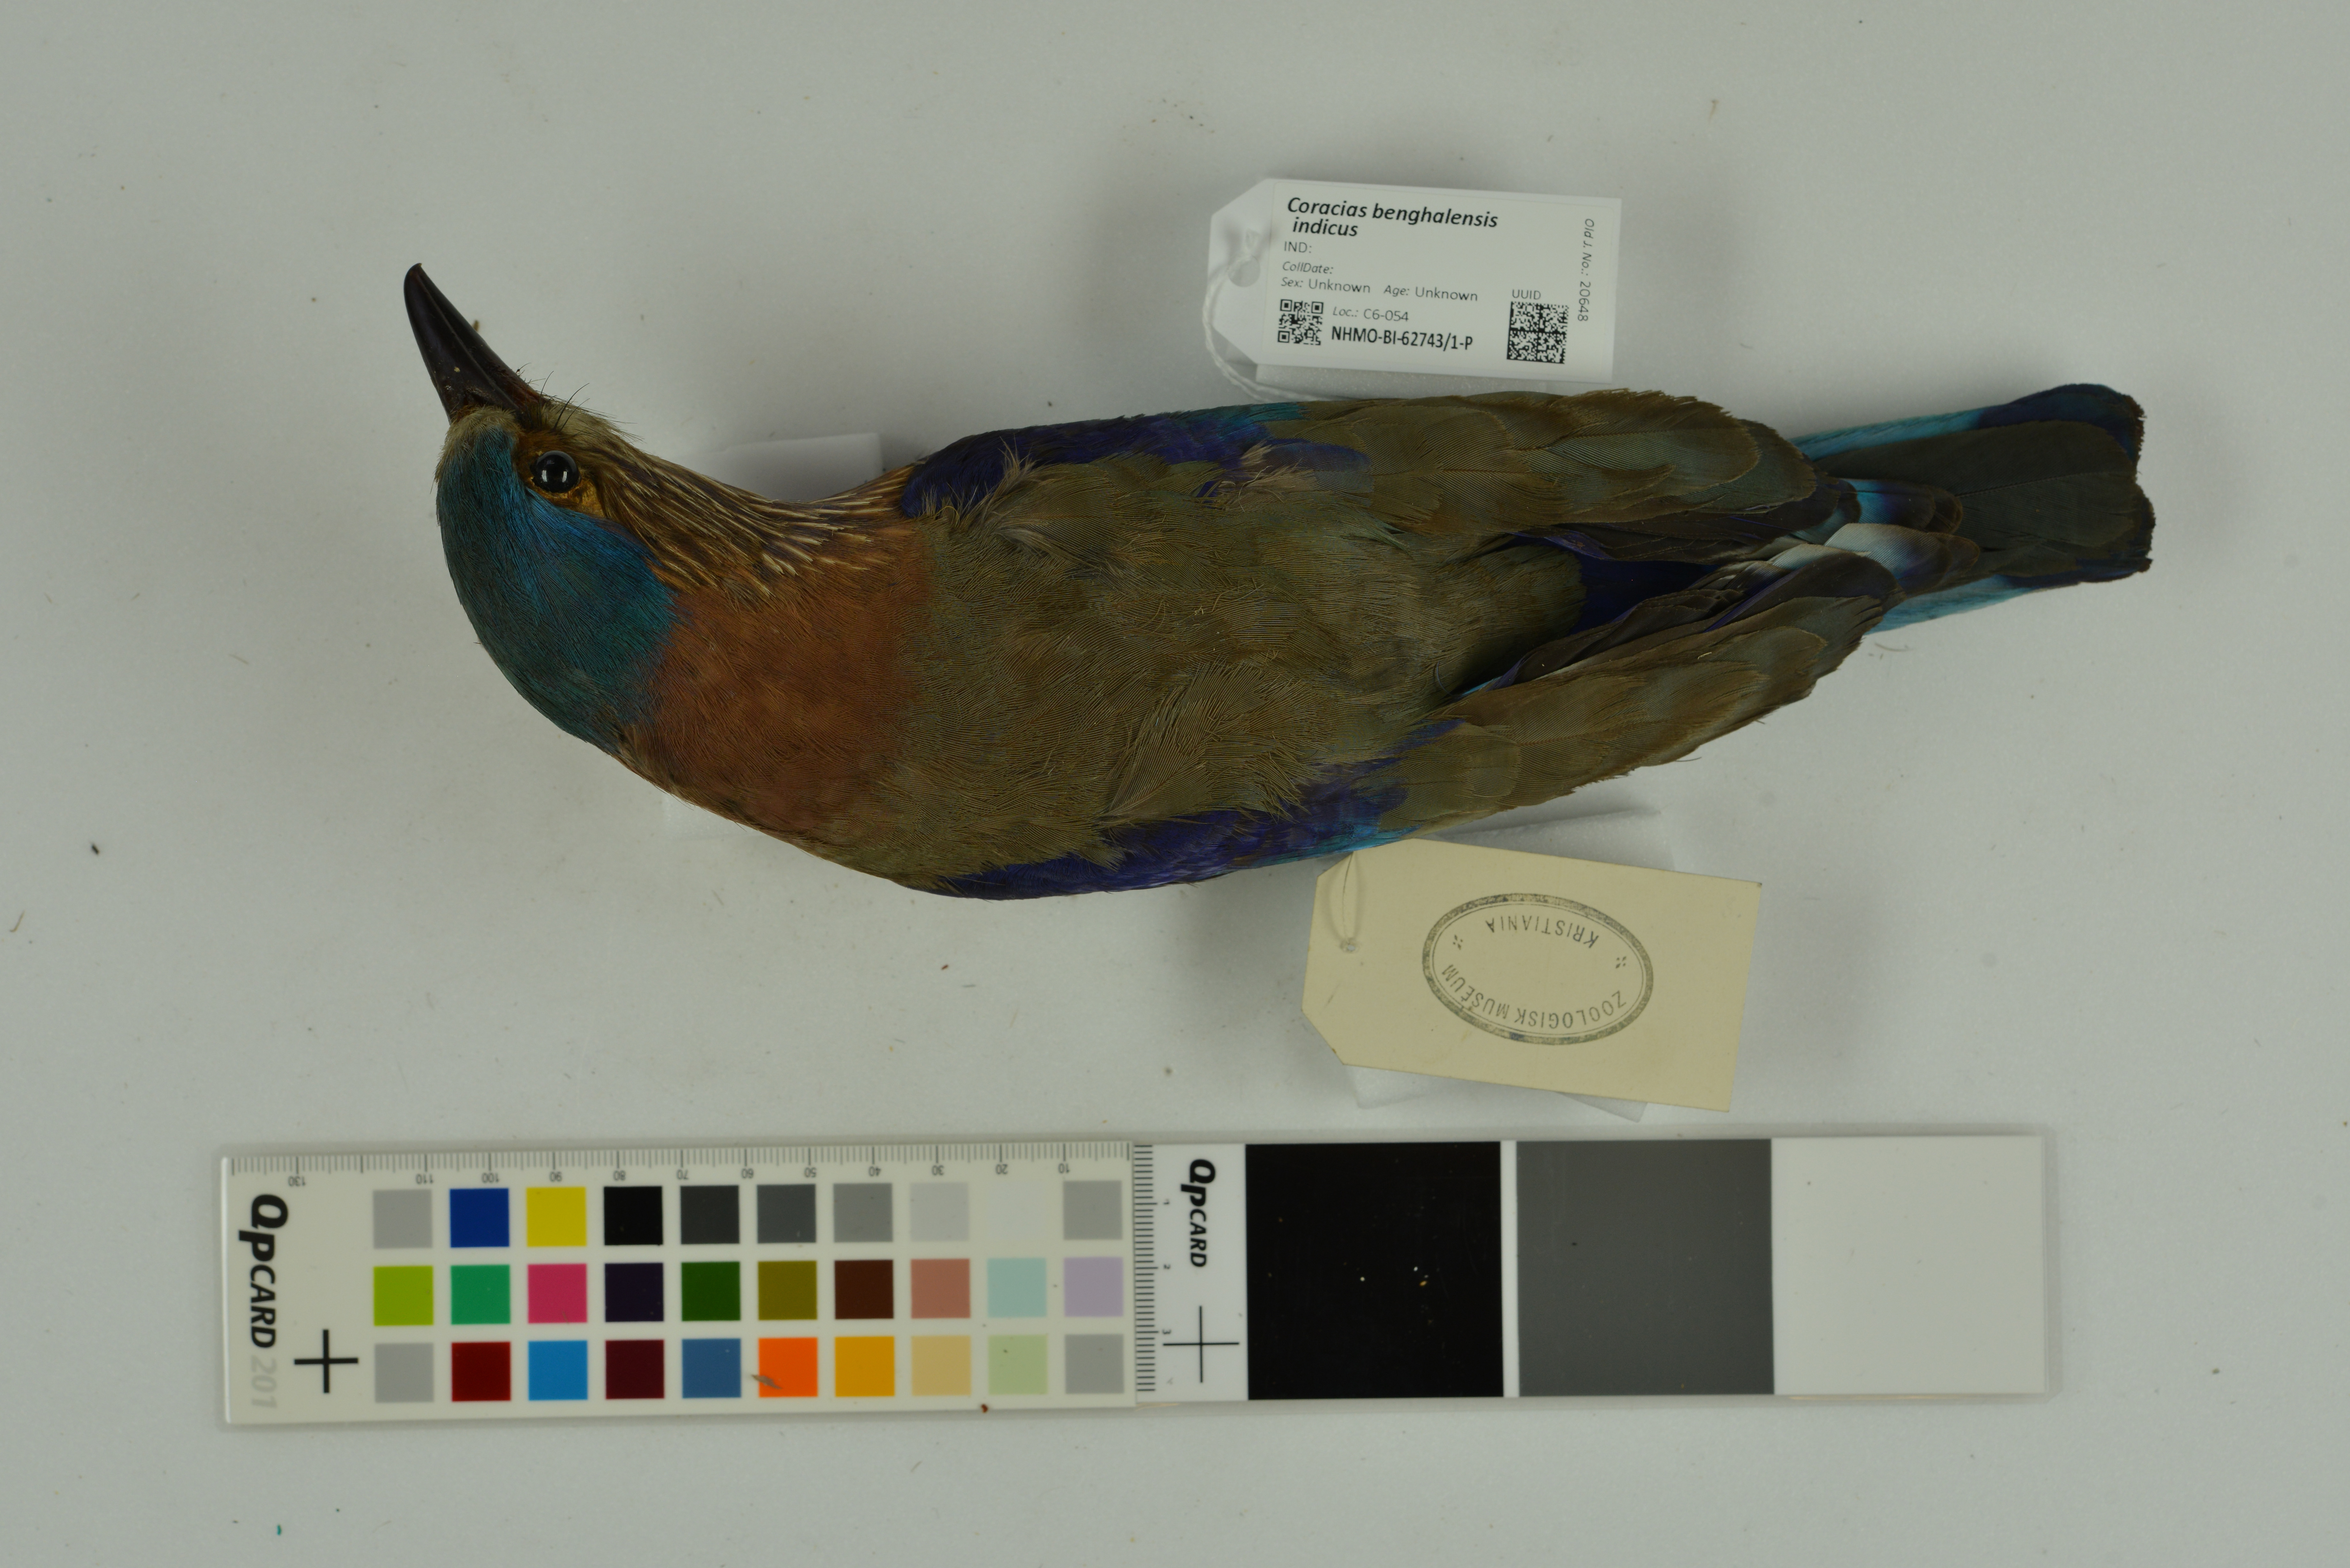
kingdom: Animalia
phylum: Chordata
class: Aves
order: Coraciiformes
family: Coraciidae
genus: Coracias
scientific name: Coracias benghalensis
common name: Indian roller
